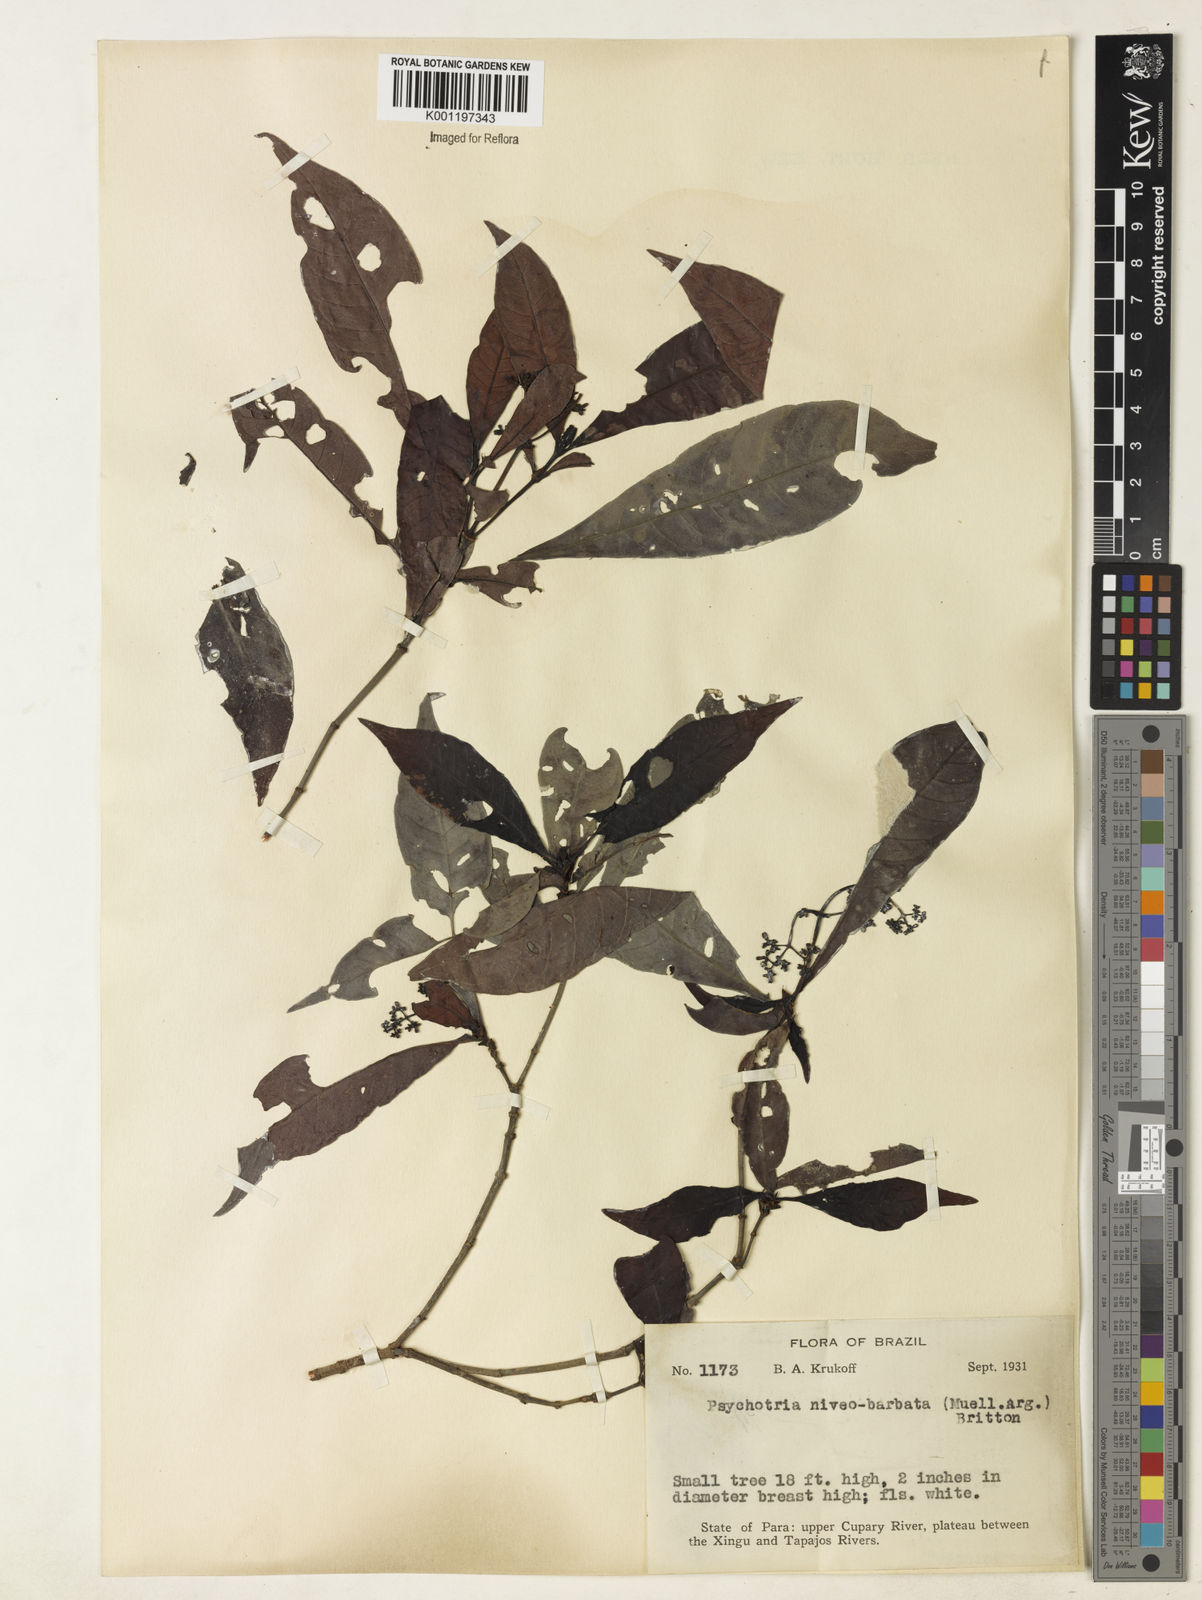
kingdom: Plantae
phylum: Tracheophyta
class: Magnoliopsida
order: Gentianales
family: Rubiaceae
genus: Psychotria
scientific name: Psychotria
